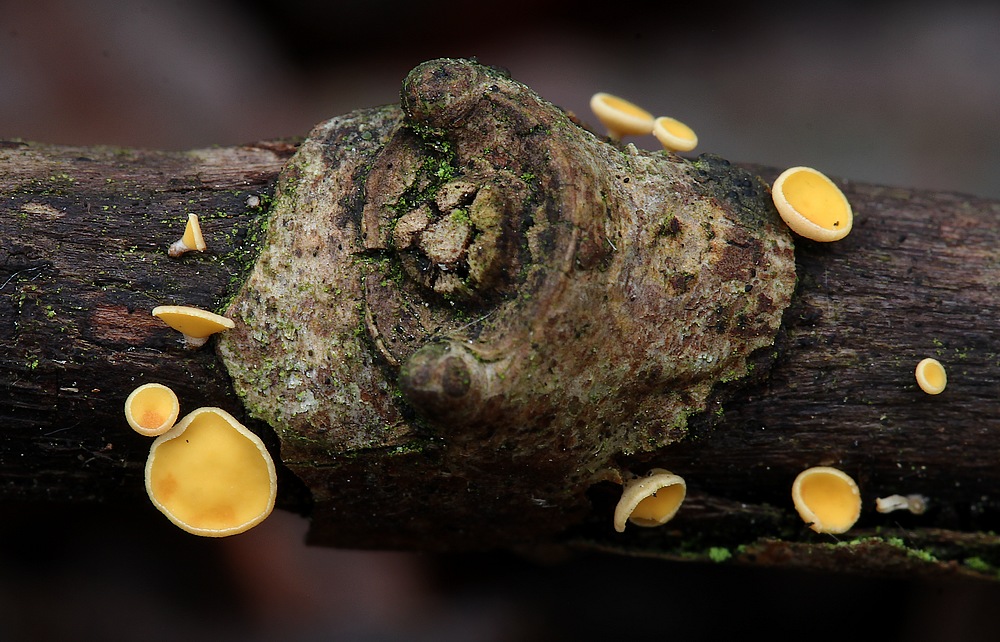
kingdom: Fungi
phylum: Ascomycota
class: Leotiomycetes
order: Helotiales
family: Helotiaceae
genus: Hymenoscyphus
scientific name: Hymenoscyphus calyculus
